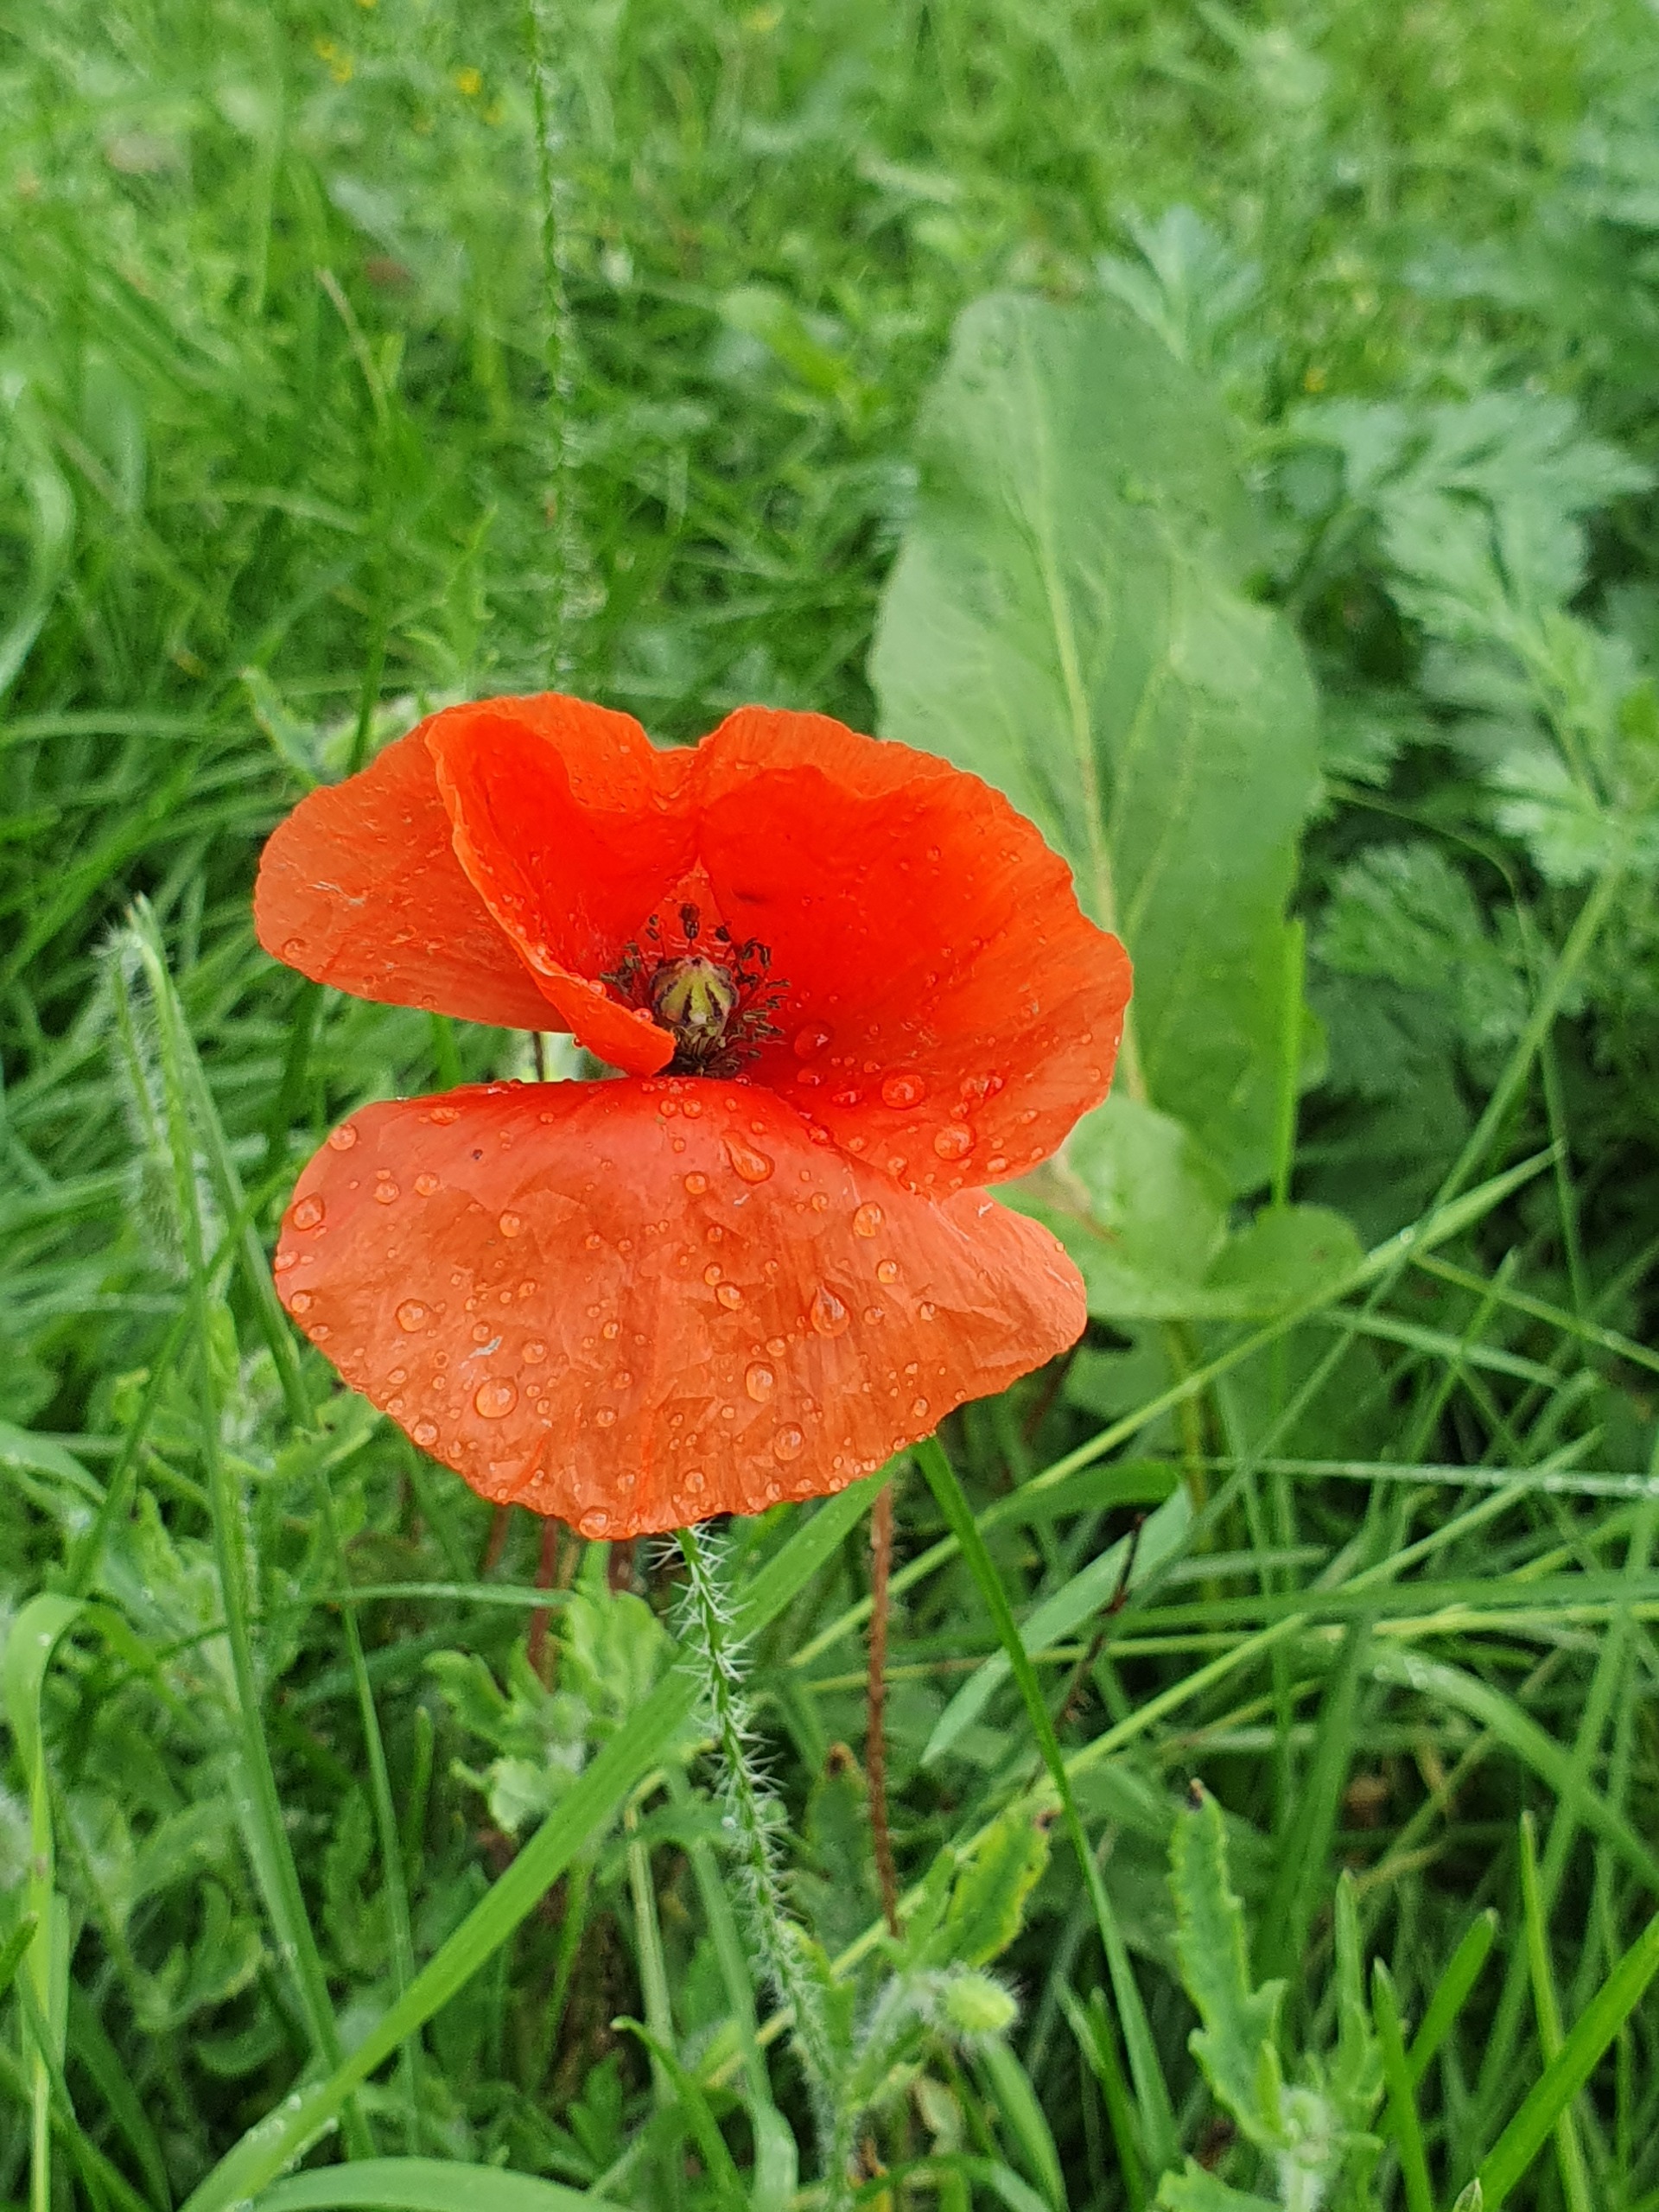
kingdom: Plantae
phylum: Tracheophyta
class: Magnoliopsida
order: Ranunculales
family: Papaveraceae
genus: Papaver
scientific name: Papaver rhoeas
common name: Korn-valmue
